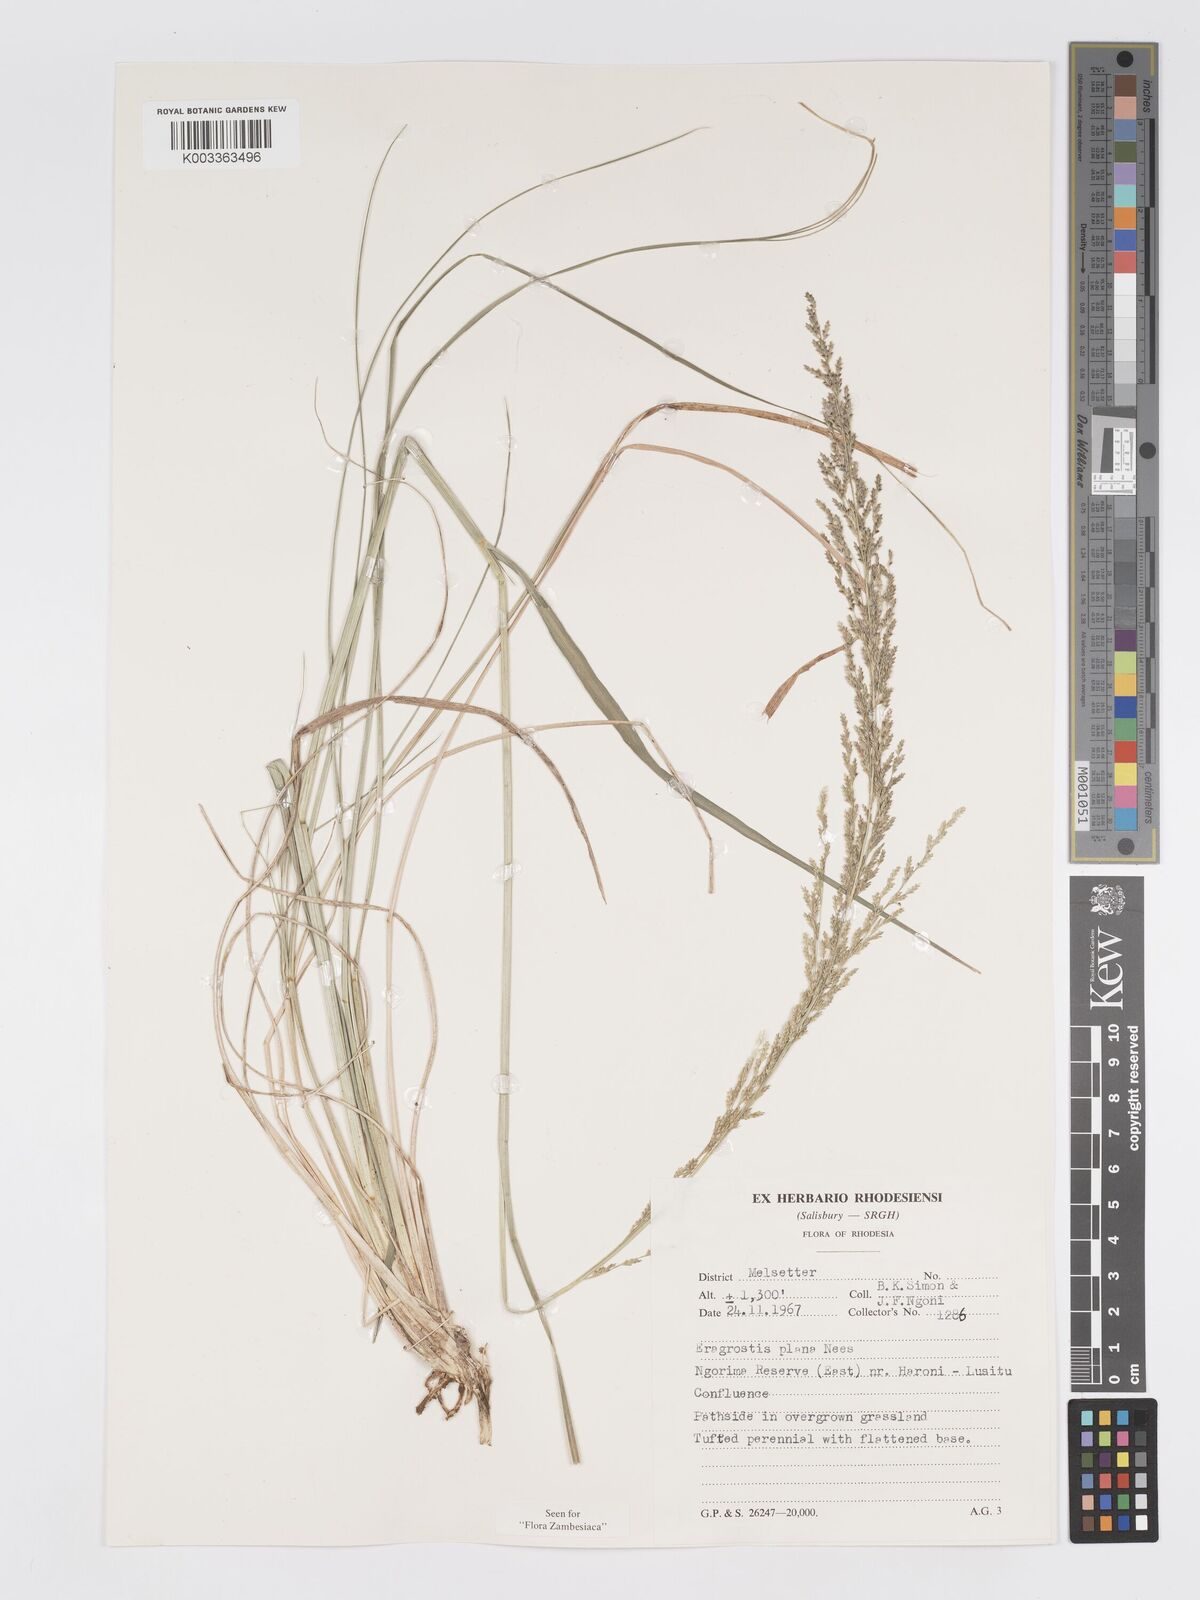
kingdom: Plantae
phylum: Tracheophyta
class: Liliopsida
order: Poales
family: Poaceae
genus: Eragrostis
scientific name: Eragrostis plana
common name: South african lovegrass
